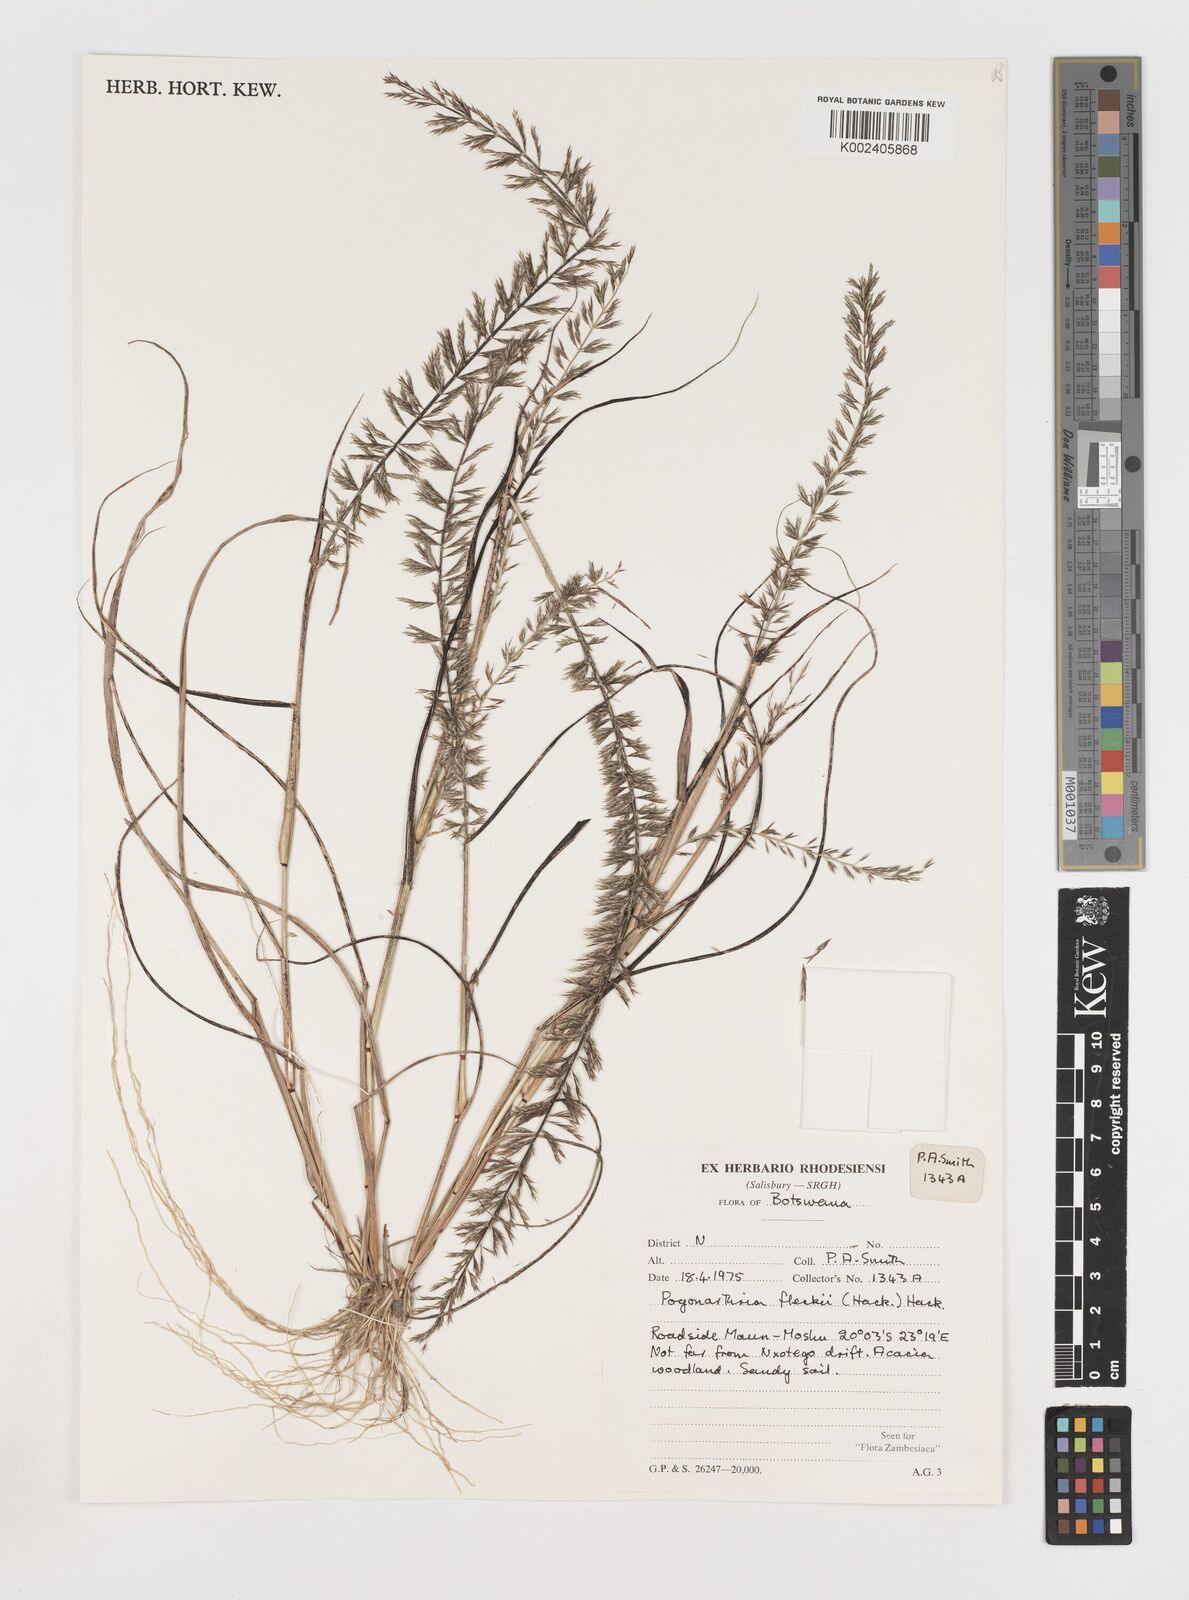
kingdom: Plantae
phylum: Tracheophyta
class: Liliopsida
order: Poales
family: Poaceae
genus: Pogonarthria
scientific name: Pogonarthria fleckii
